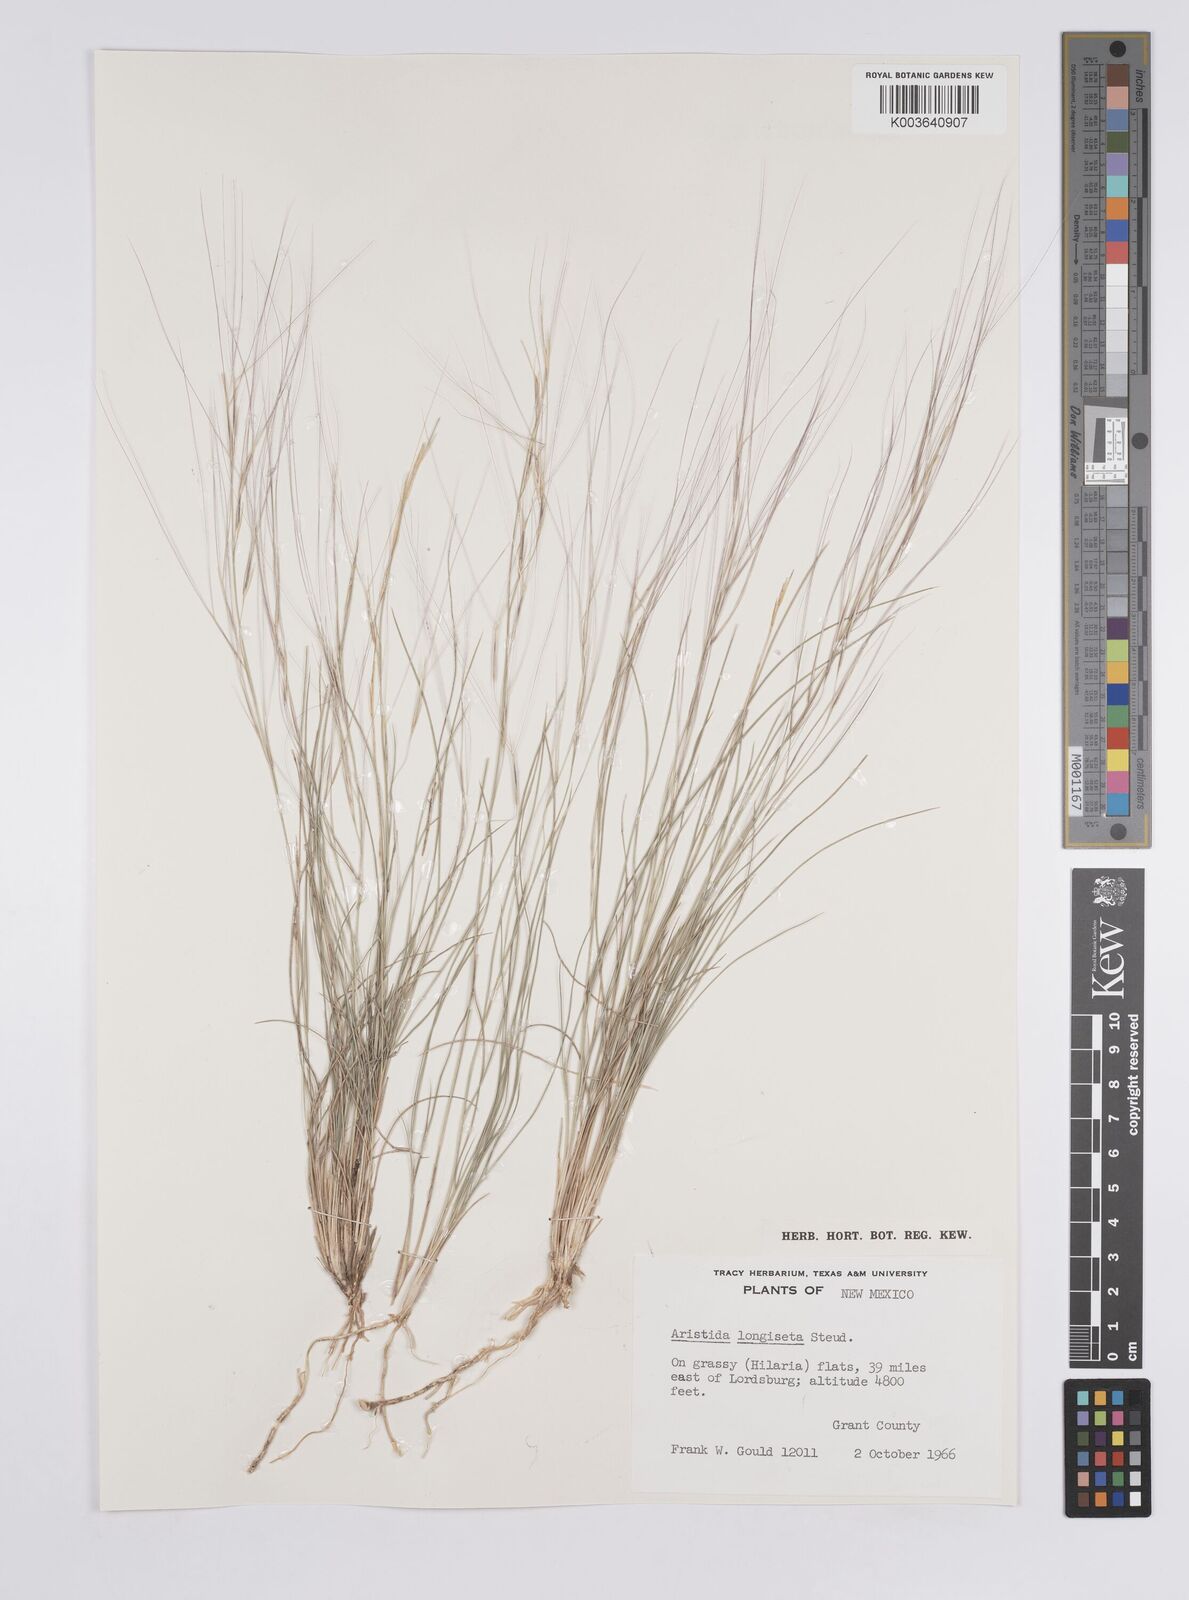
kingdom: Plantae
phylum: Tracheophyta
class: Liliopsida
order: Poales
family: Poaceae
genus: Aristida
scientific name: Aristida purpurea
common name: Purple threeawn
